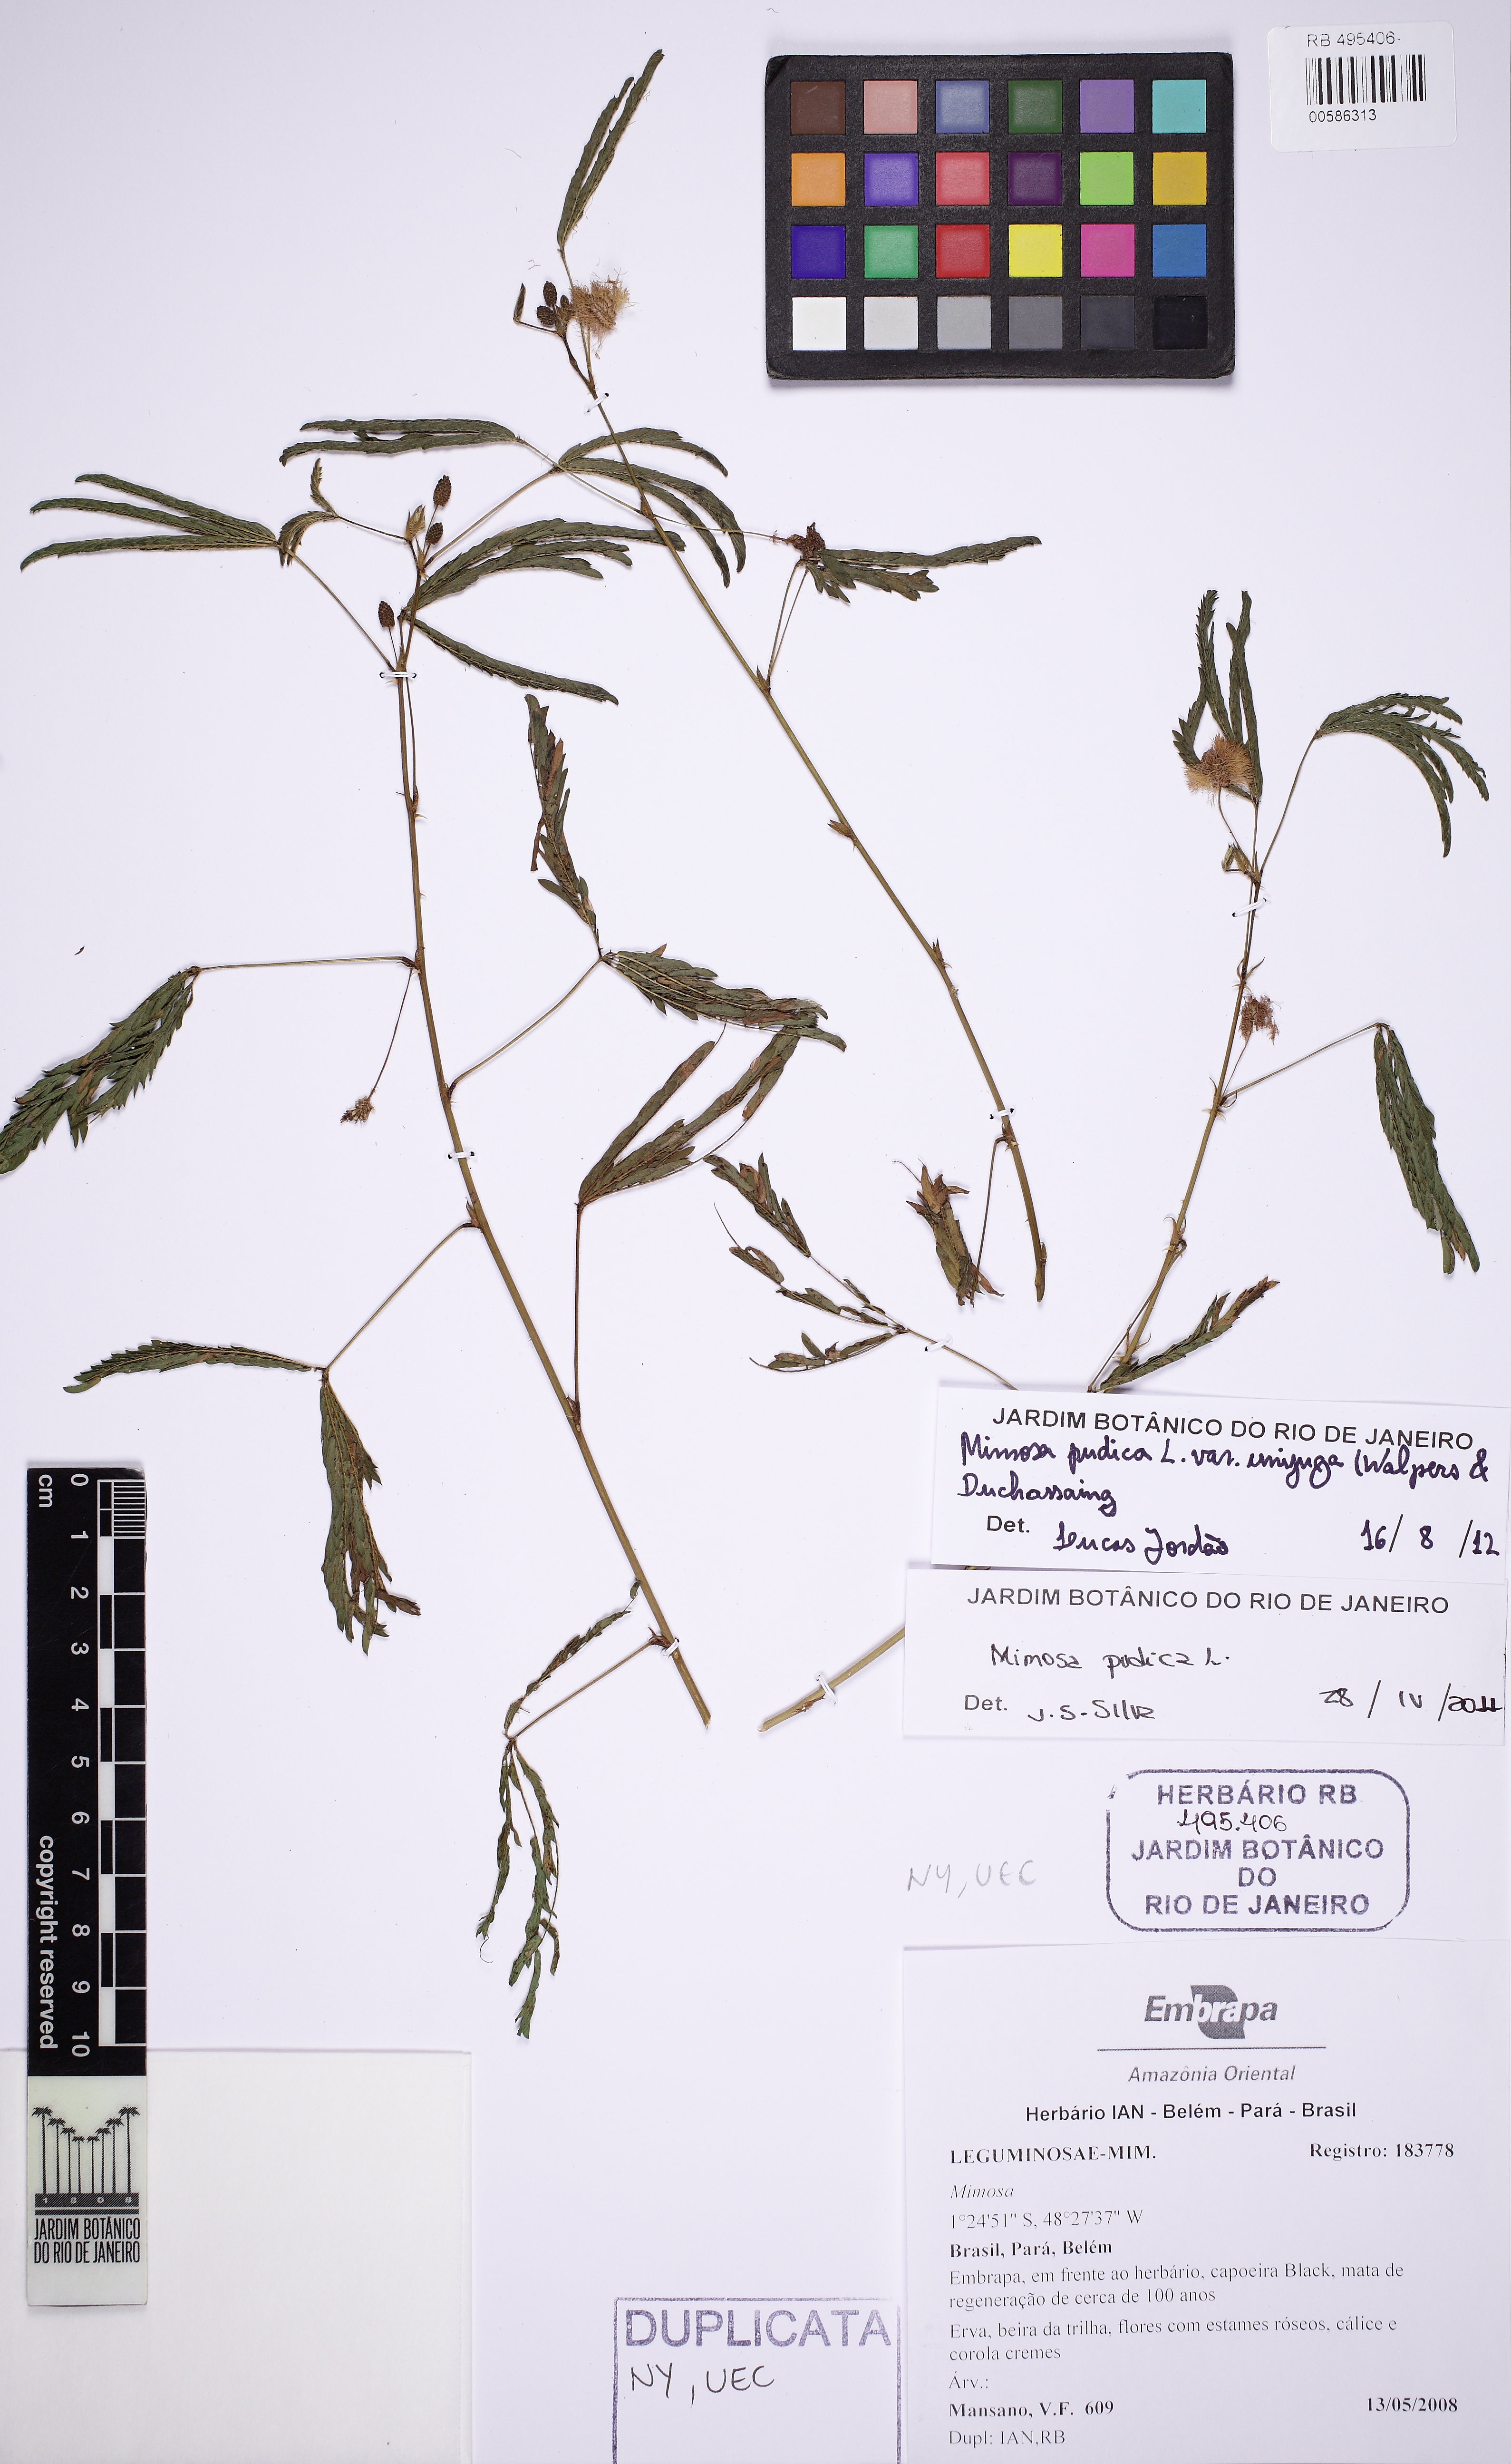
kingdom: Plantae
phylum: Tracheophyta
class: Magnoliopsida
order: Fabales
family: Fabaceae
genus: Mimosa
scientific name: Mimosa pudica
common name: Sensitive plant
